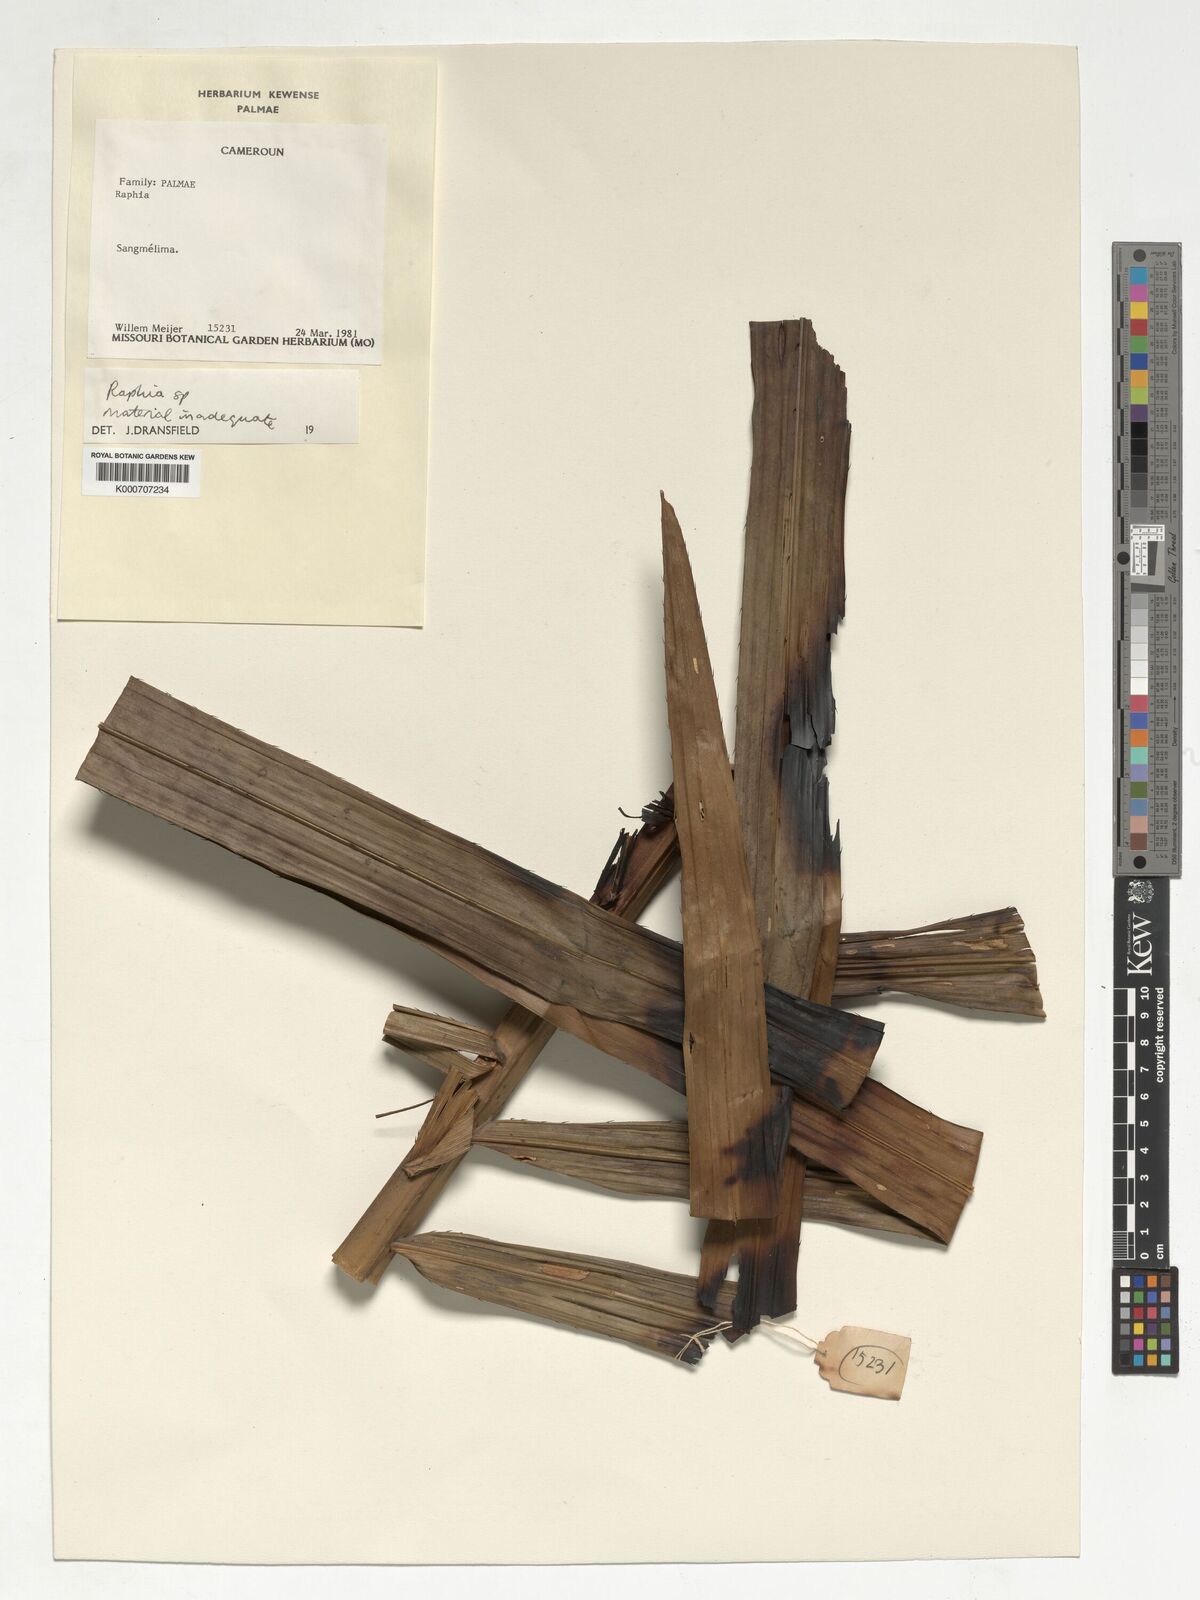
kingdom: Plantae
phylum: Tracheophyta
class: Liliopsida
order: Arecales
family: Arecaceae
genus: Raphia
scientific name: Raphia
